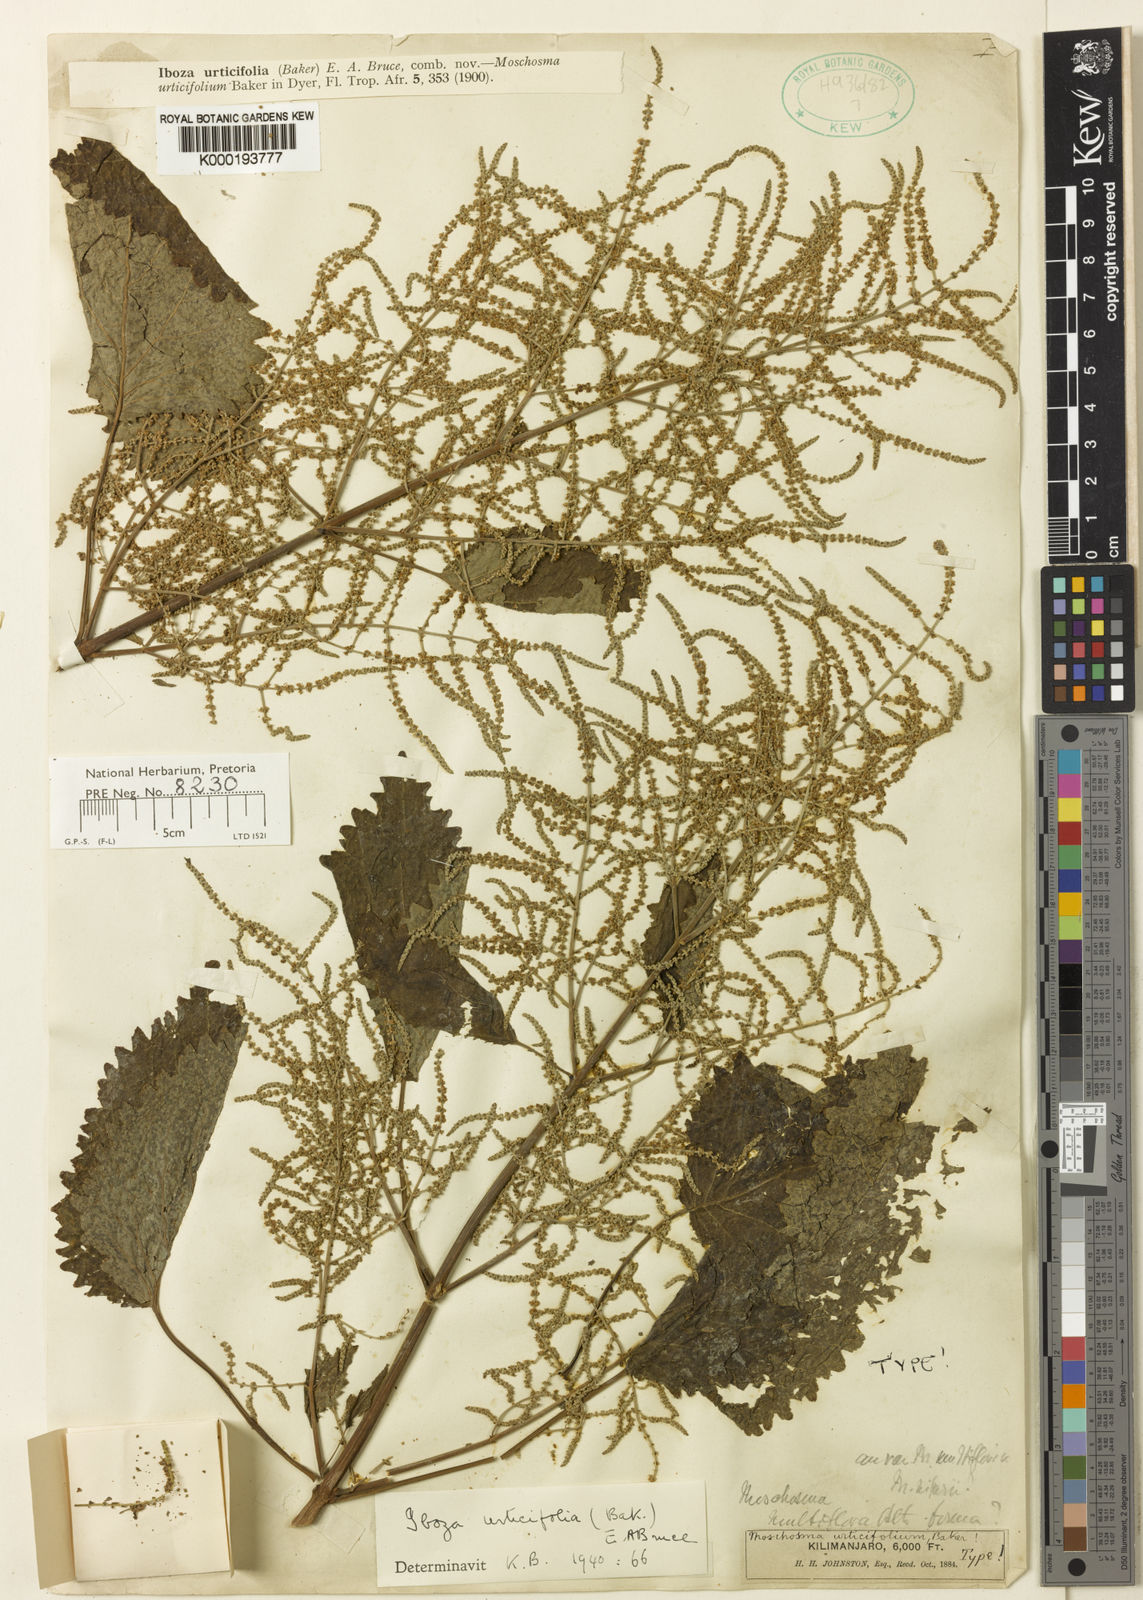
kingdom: Plantae
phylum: Tracheophyta
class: Magnoliopsida
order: Lamiales
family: Lamiaceae
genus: Tetradenia
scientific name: Tetradenia urticifolia
